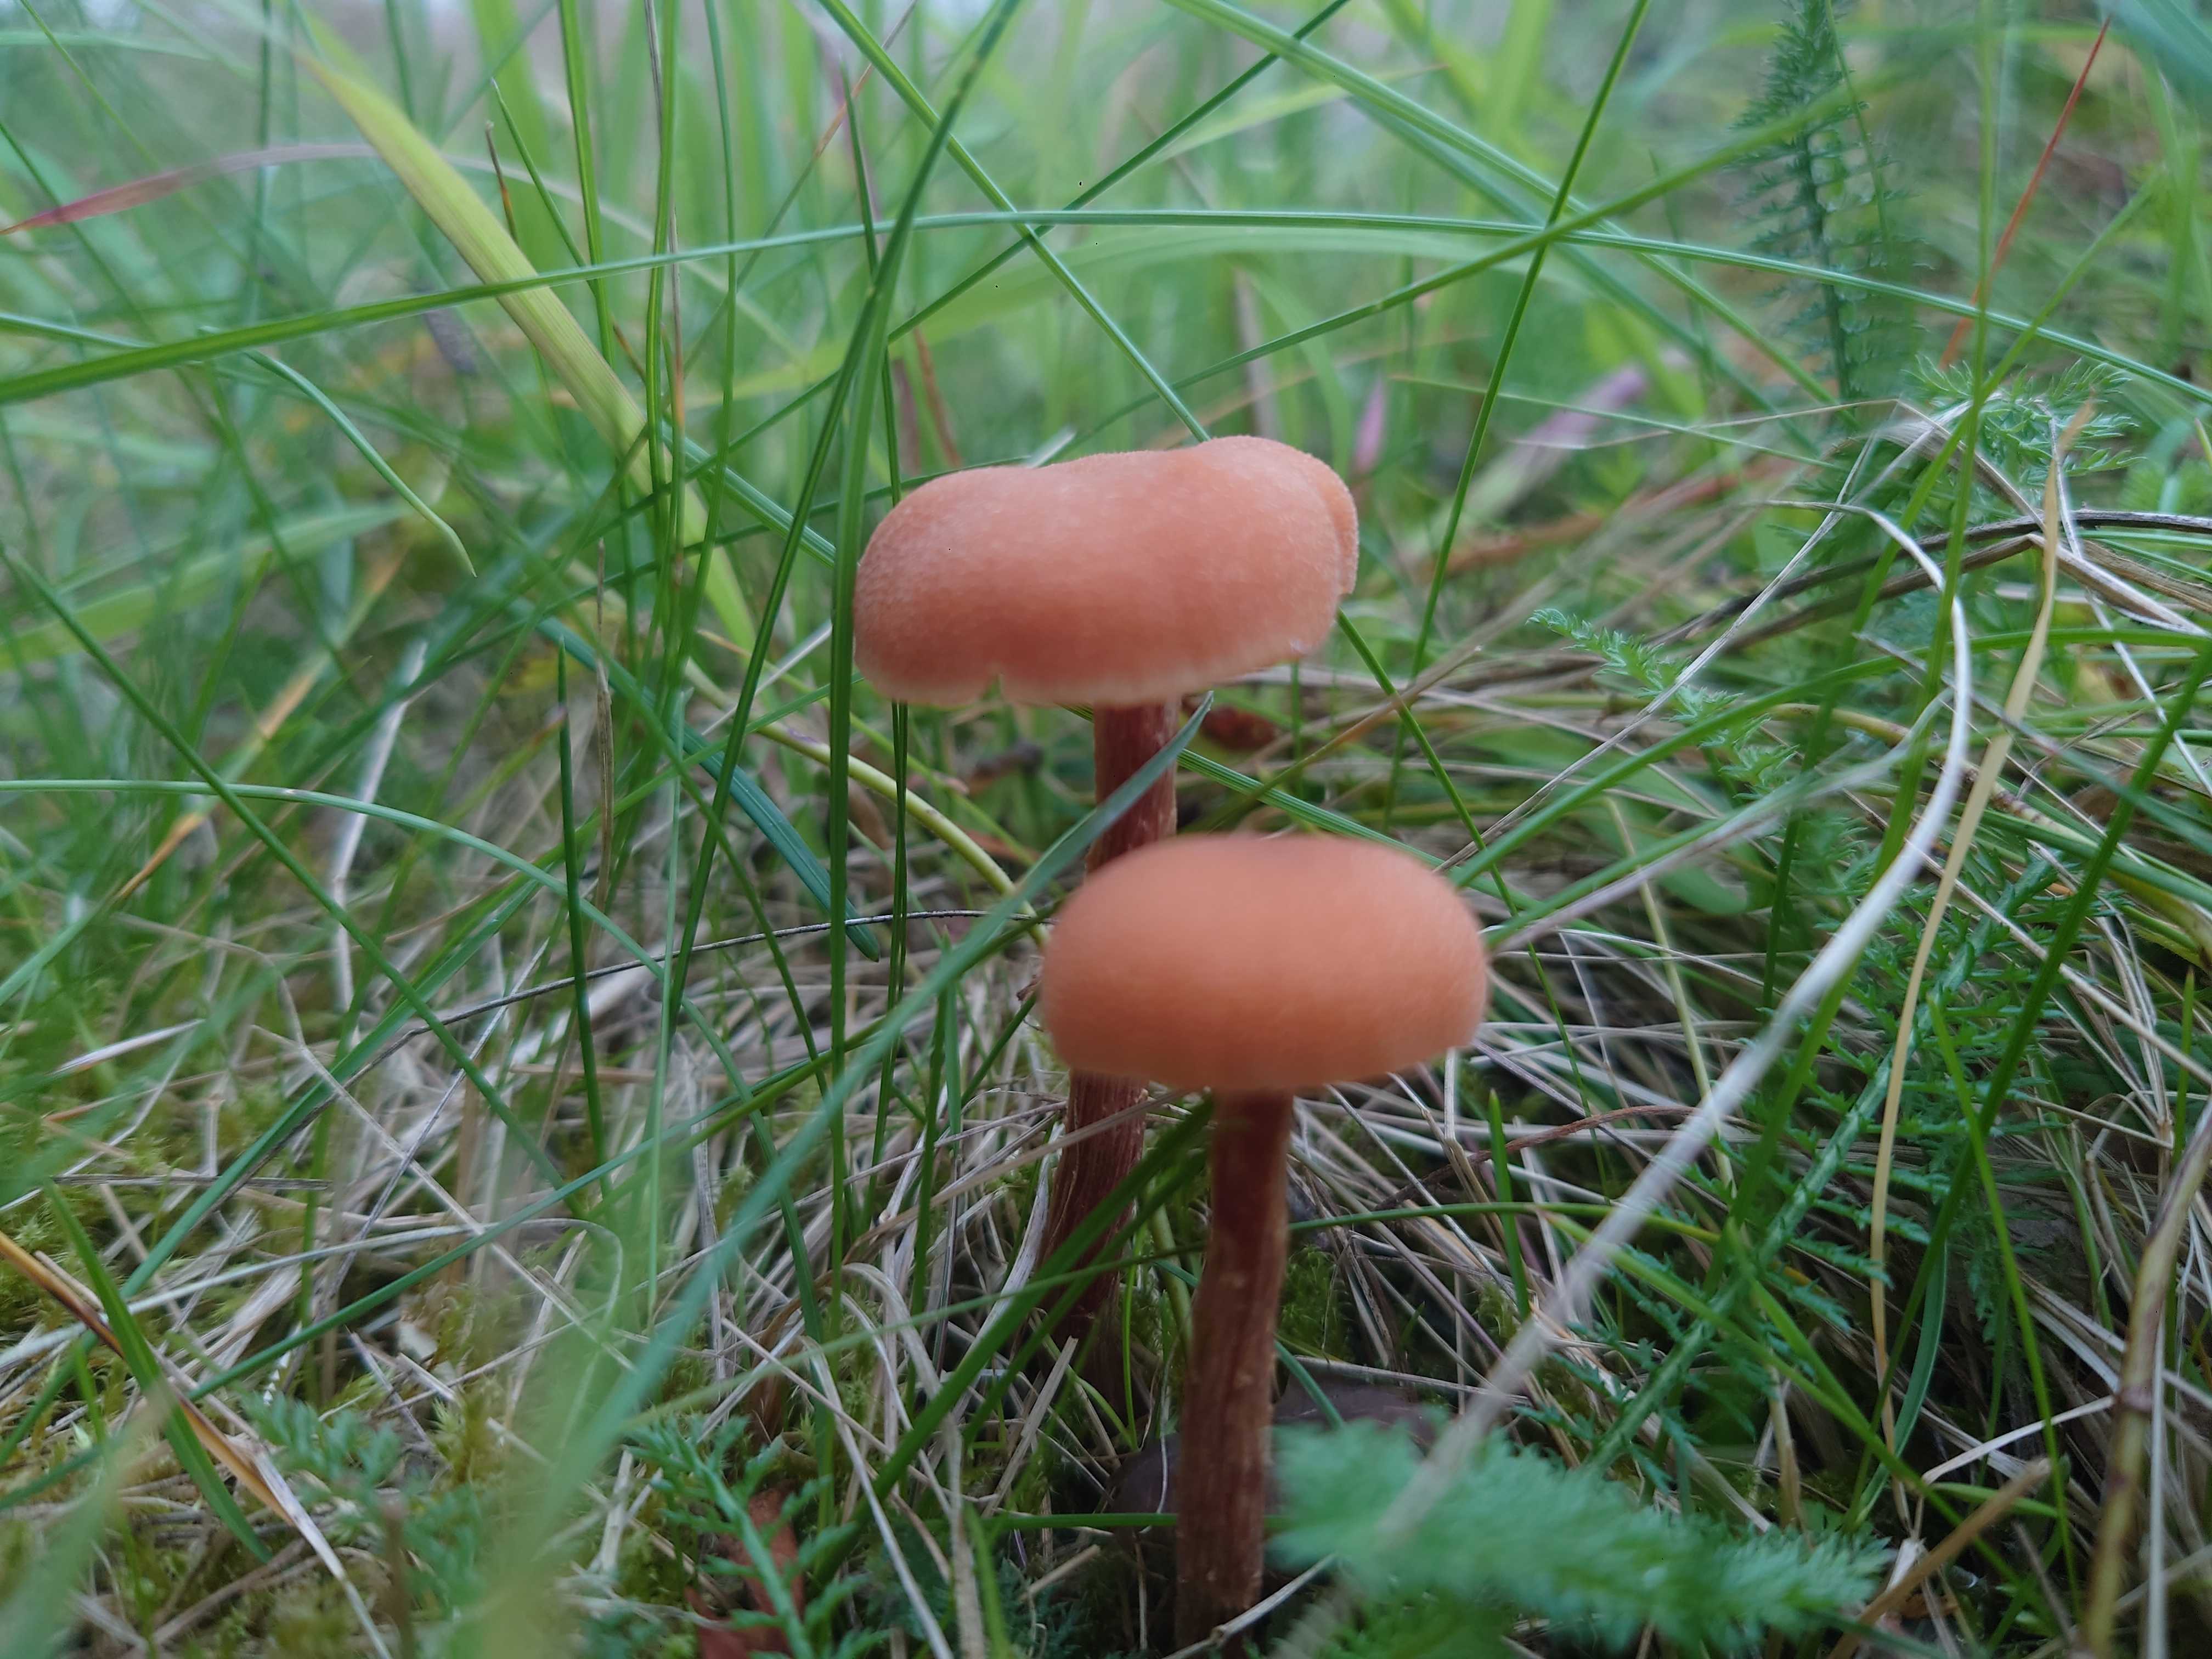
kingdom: Fungi
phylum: Basidiomycota
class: Agaricomycetes
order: Agaricales
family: Hydnangiaceae
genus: Laccaria
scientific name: Laccaria proxima
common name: stor ametysthat
